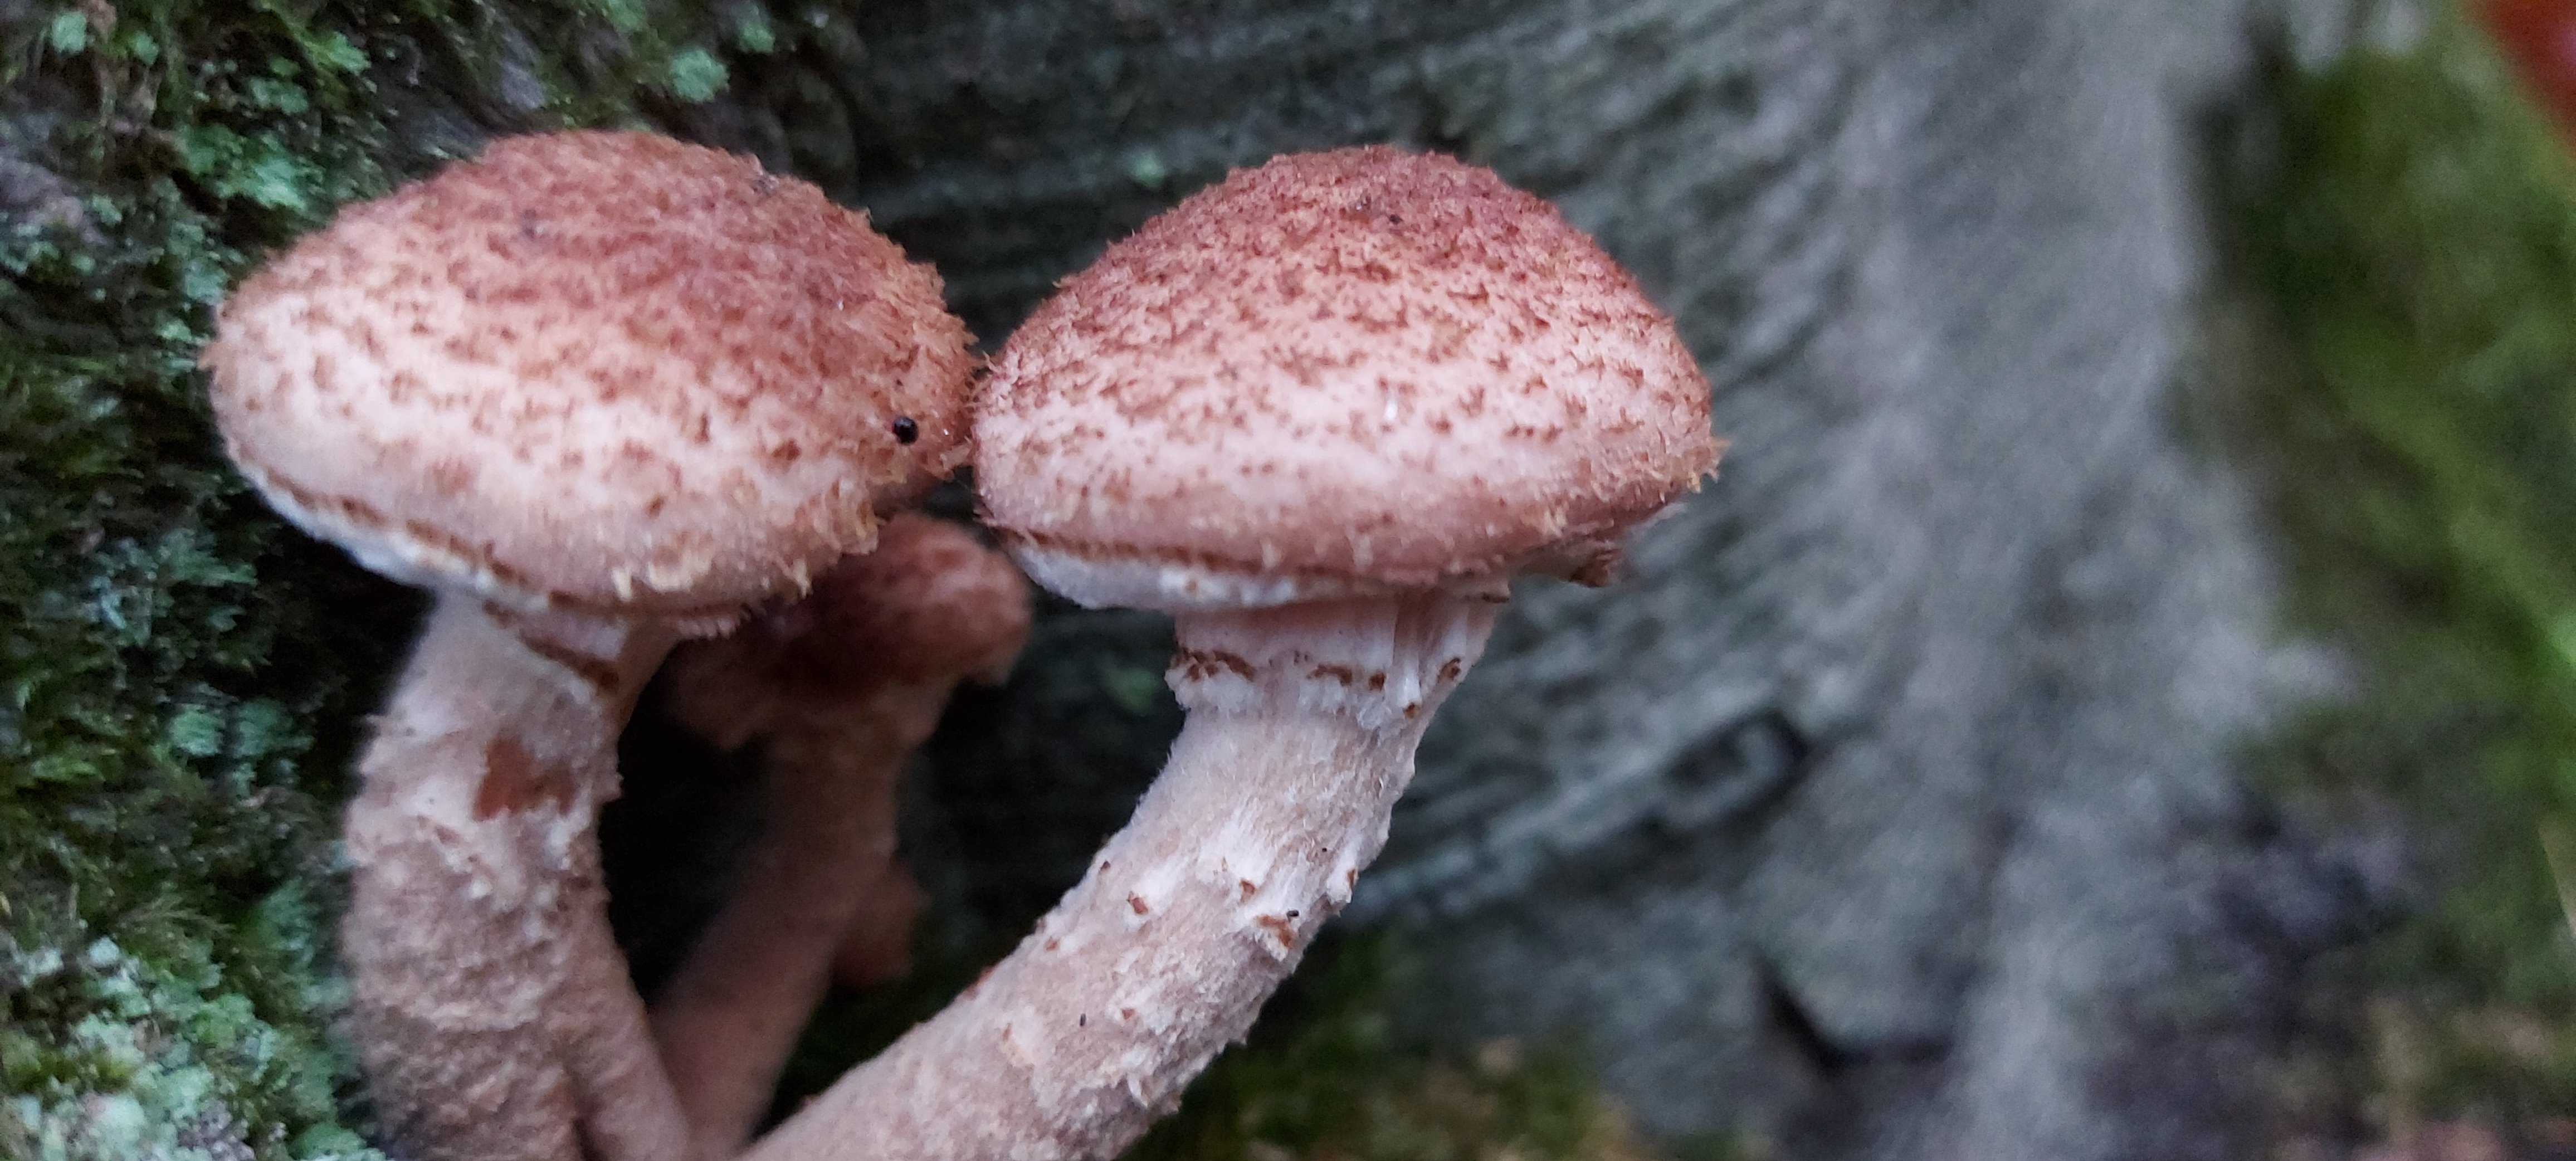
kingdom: Fungi
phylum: Basidiomycota
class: Agaricomycetes
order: Agaricales
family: Physalacriaceae
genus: Armillaria
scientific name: Armillaria ostoyae
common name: mørk honningsvamp
